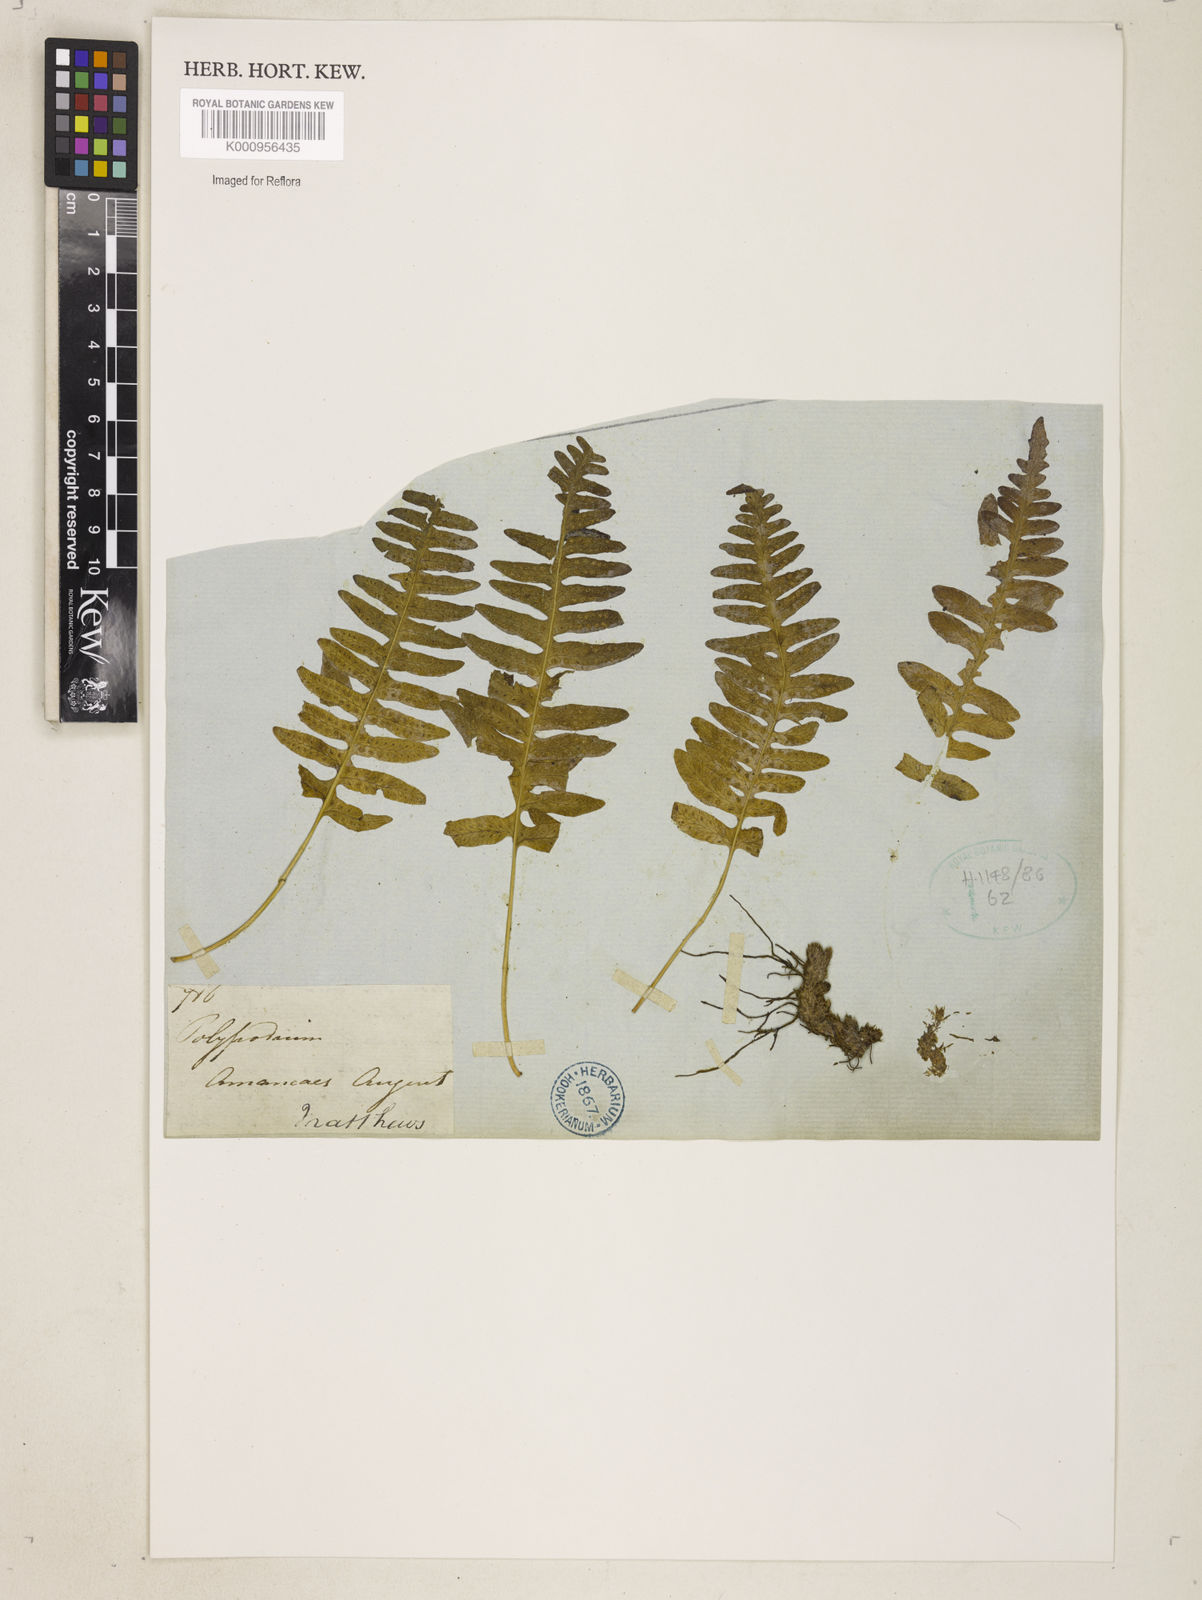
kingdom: Plantae
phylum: Tracheophyta
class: Polypodiopsida
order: Polypodiales
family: Polypodiaceae
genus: Polypodium
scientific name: Polypodium
